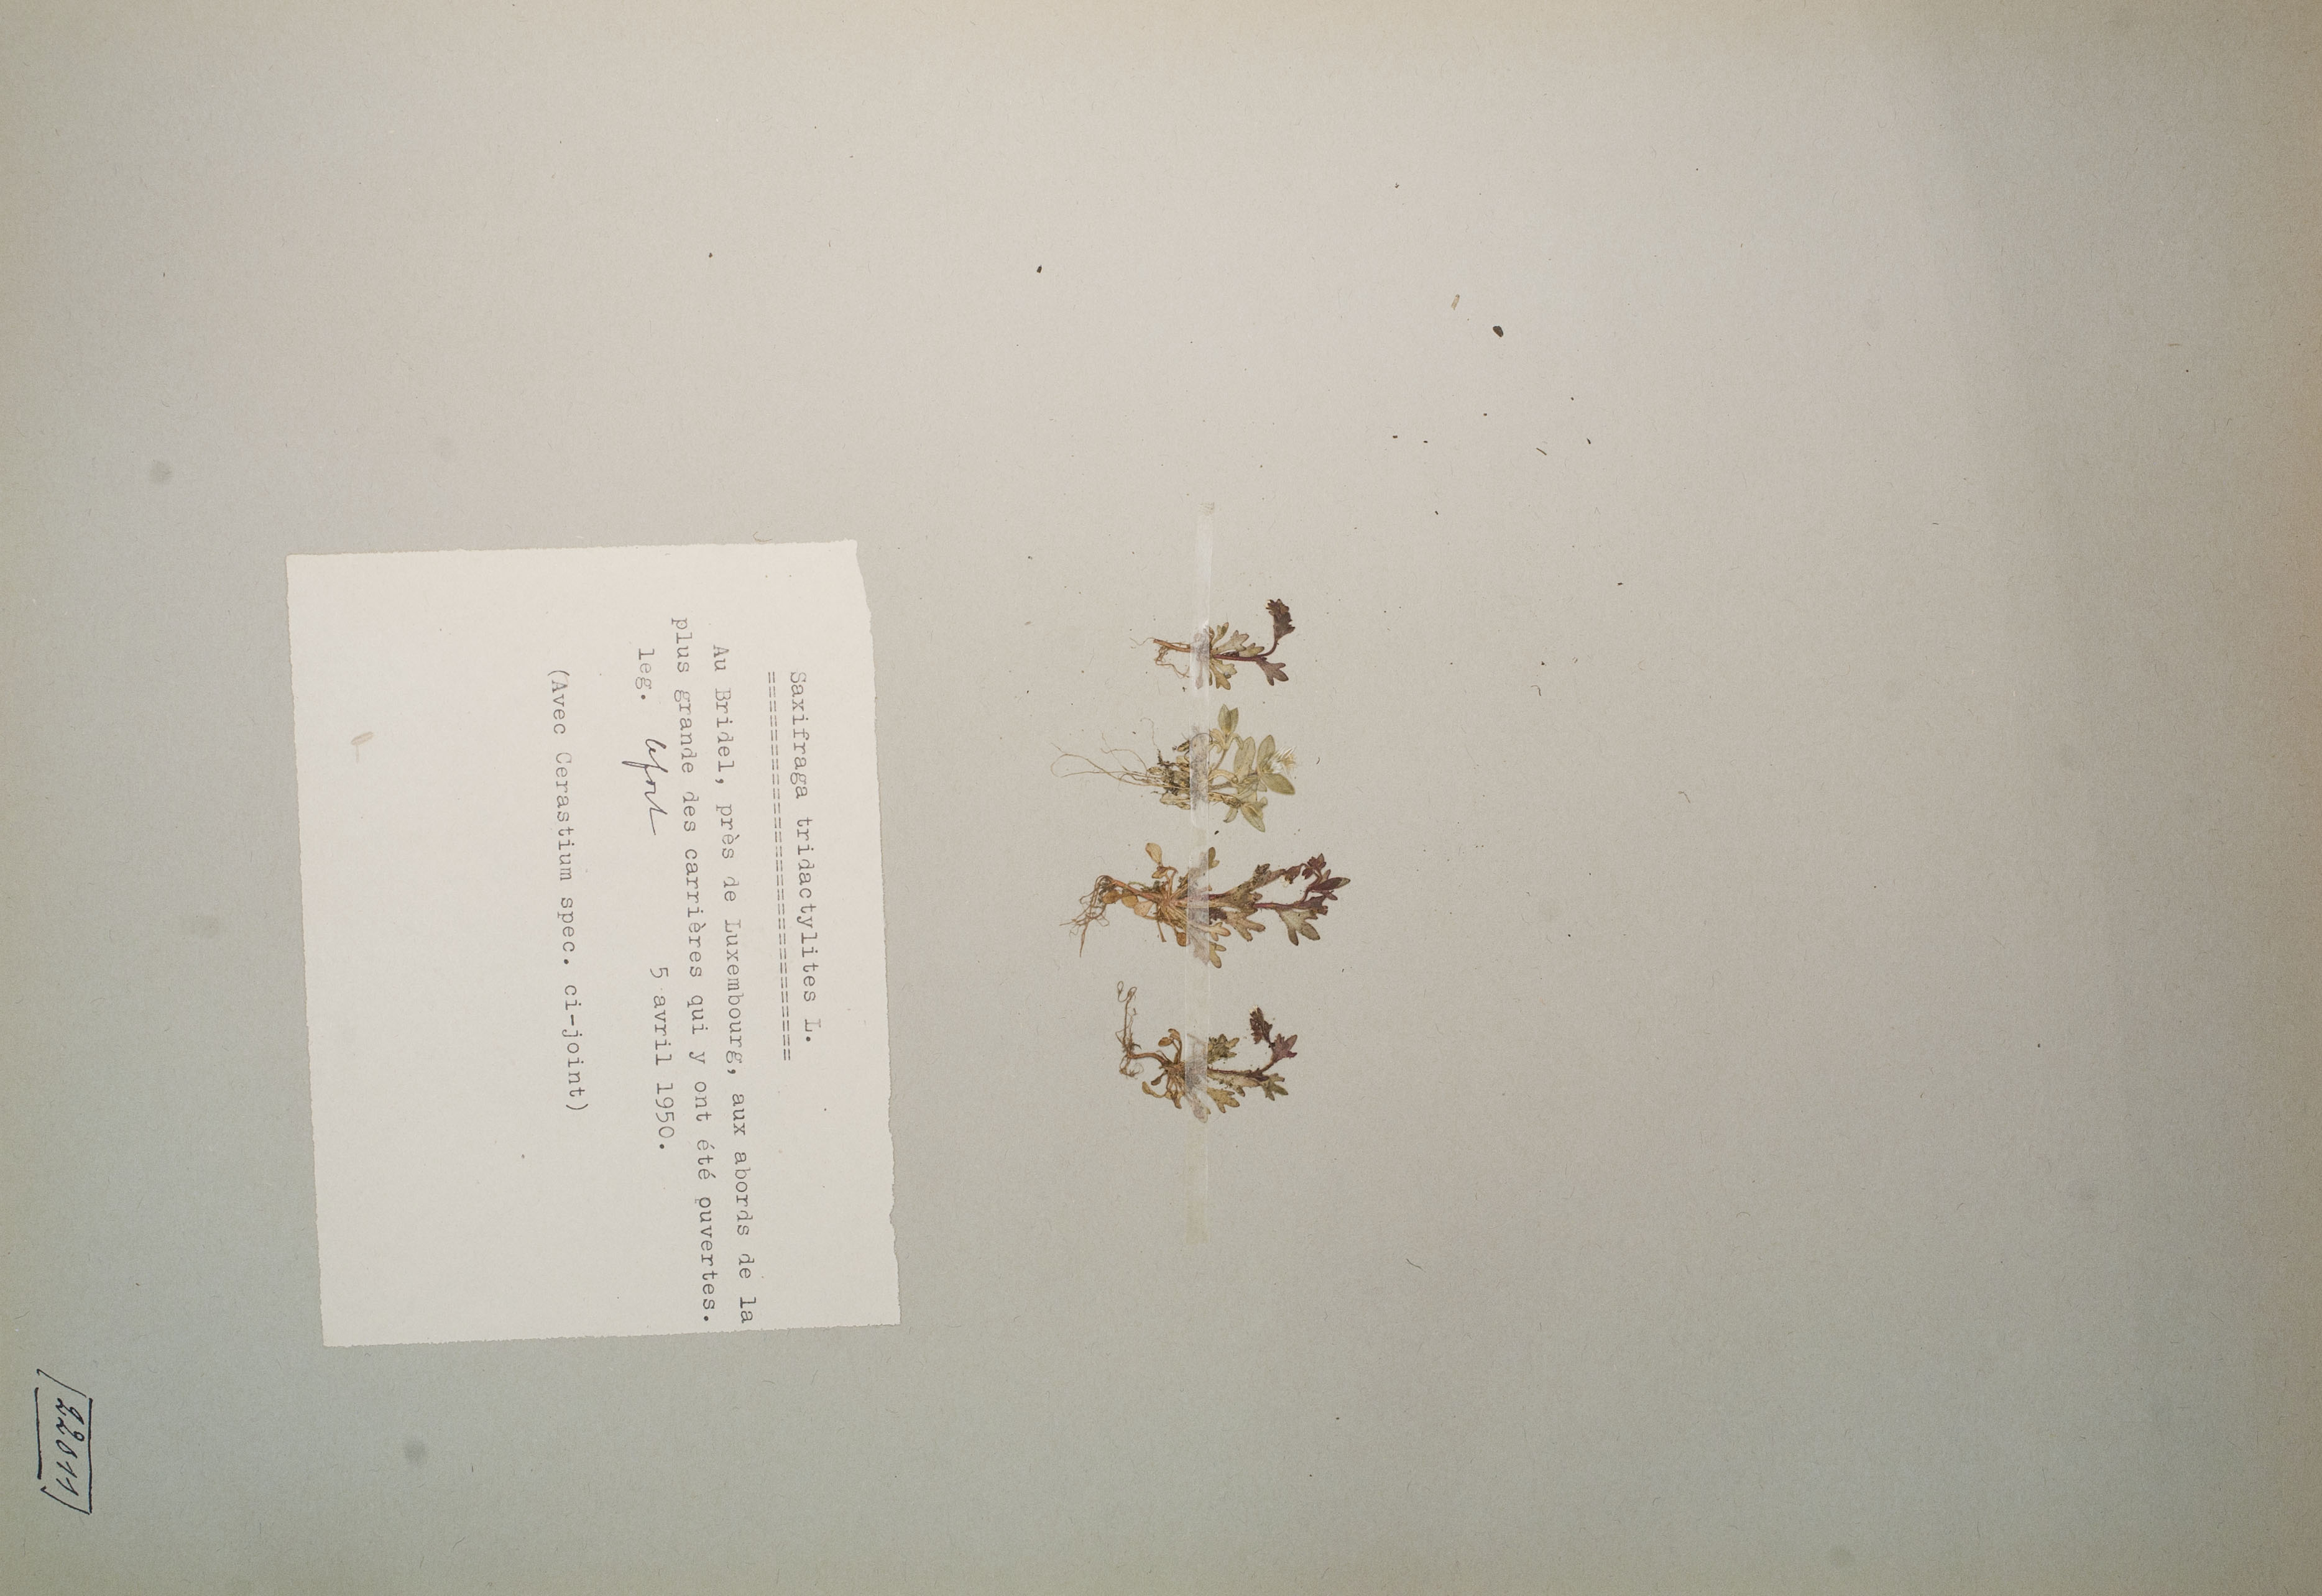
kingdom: Plantae
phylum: Tracheophyta
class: Magnoliopsida
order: Saxifragales
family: Saxifragaceae
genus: Saxifraga
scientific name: Saxifraga tridactylites
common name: Rue-leaved saxifrage
